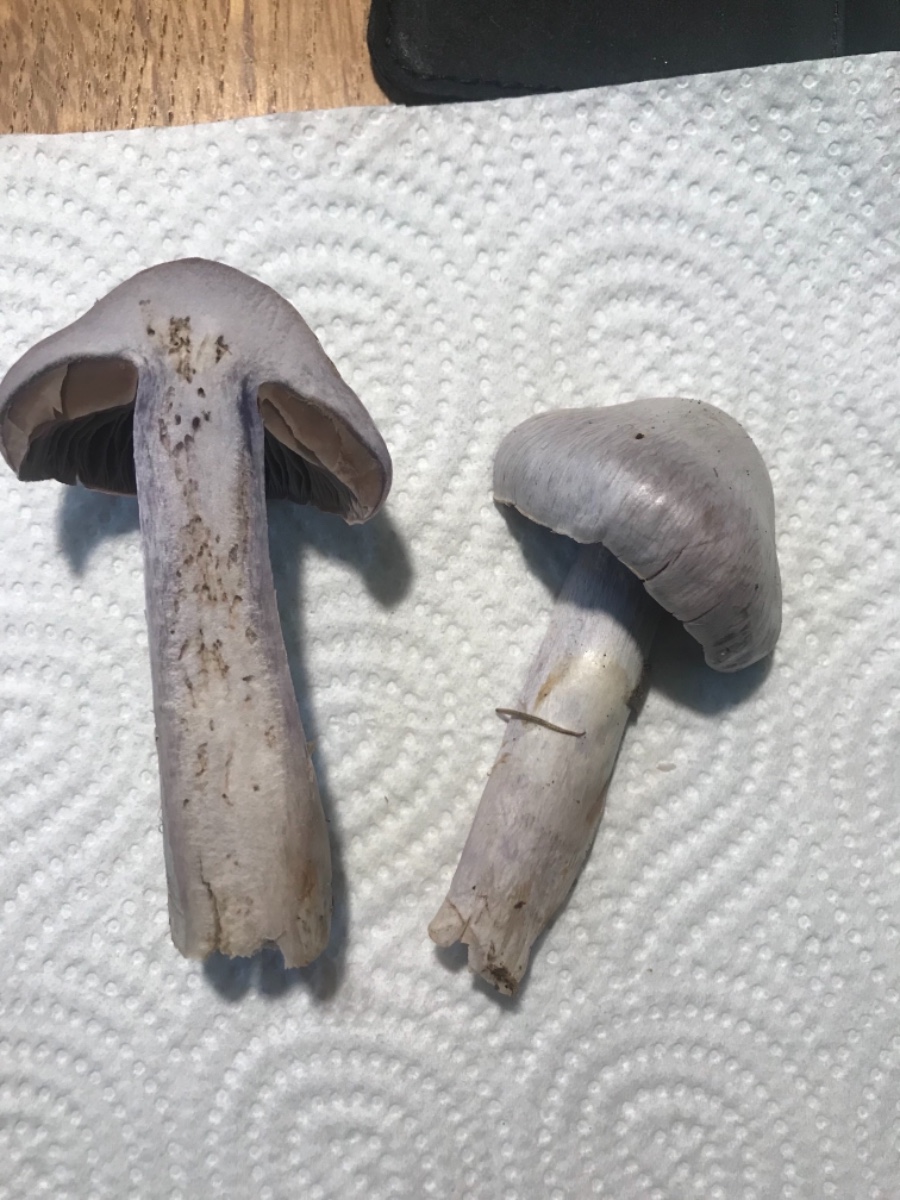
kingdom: Fungi
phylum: Basidiomycota
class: Agaricomycetes
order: Agaricales
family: Cortinariaceae
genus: Cortinarius
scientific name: Cortinarius
